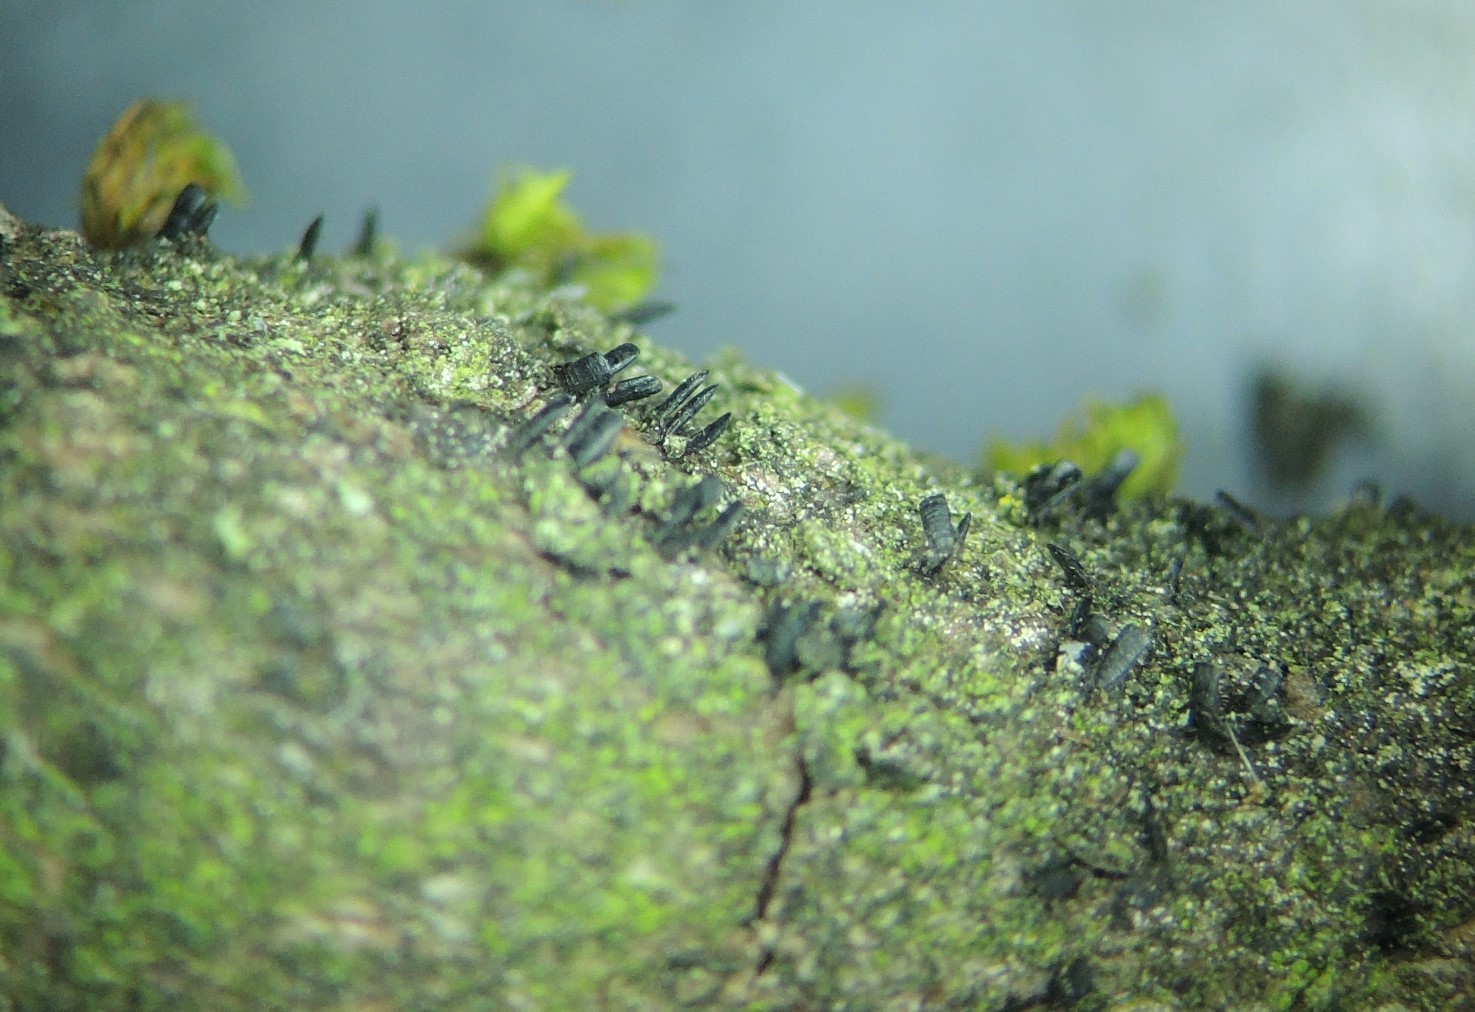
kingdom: Fungi
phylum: Ascomycota
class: Eurotiomycetes
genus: Glyphium
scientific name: Glyphium elatum
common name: kuløkse
